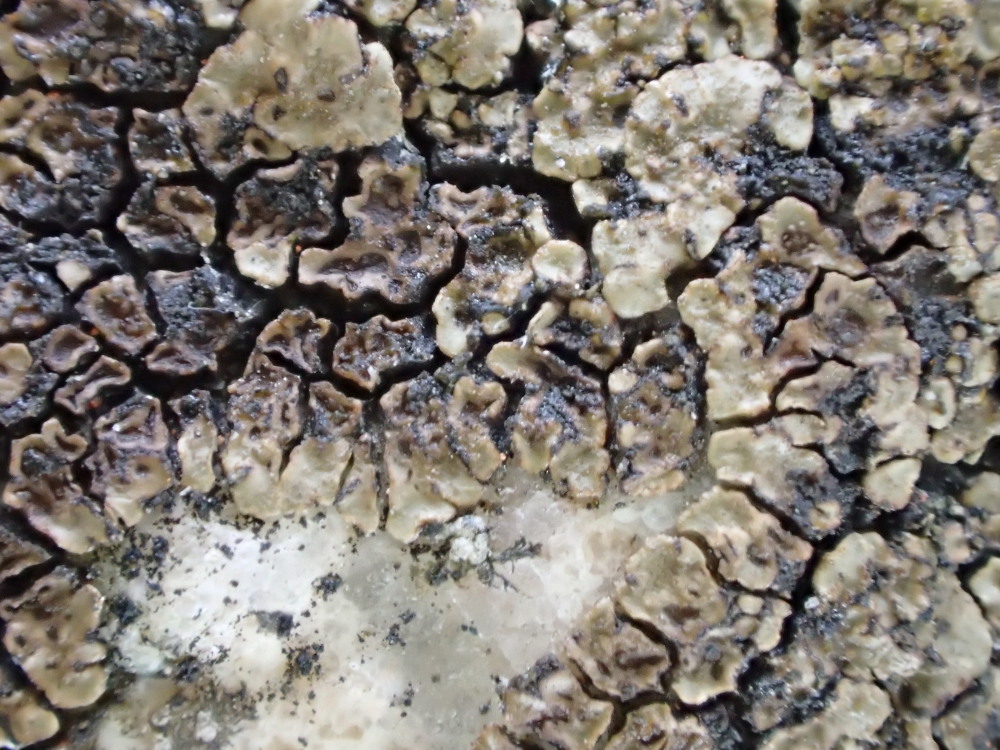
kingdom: Fungi
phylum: Ascomycota
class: Lecanoromycetes
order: Acarosporales
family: Acarosporaceae
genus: Acarospora
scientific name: Acarospora fuscata
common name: brun småsporelav
